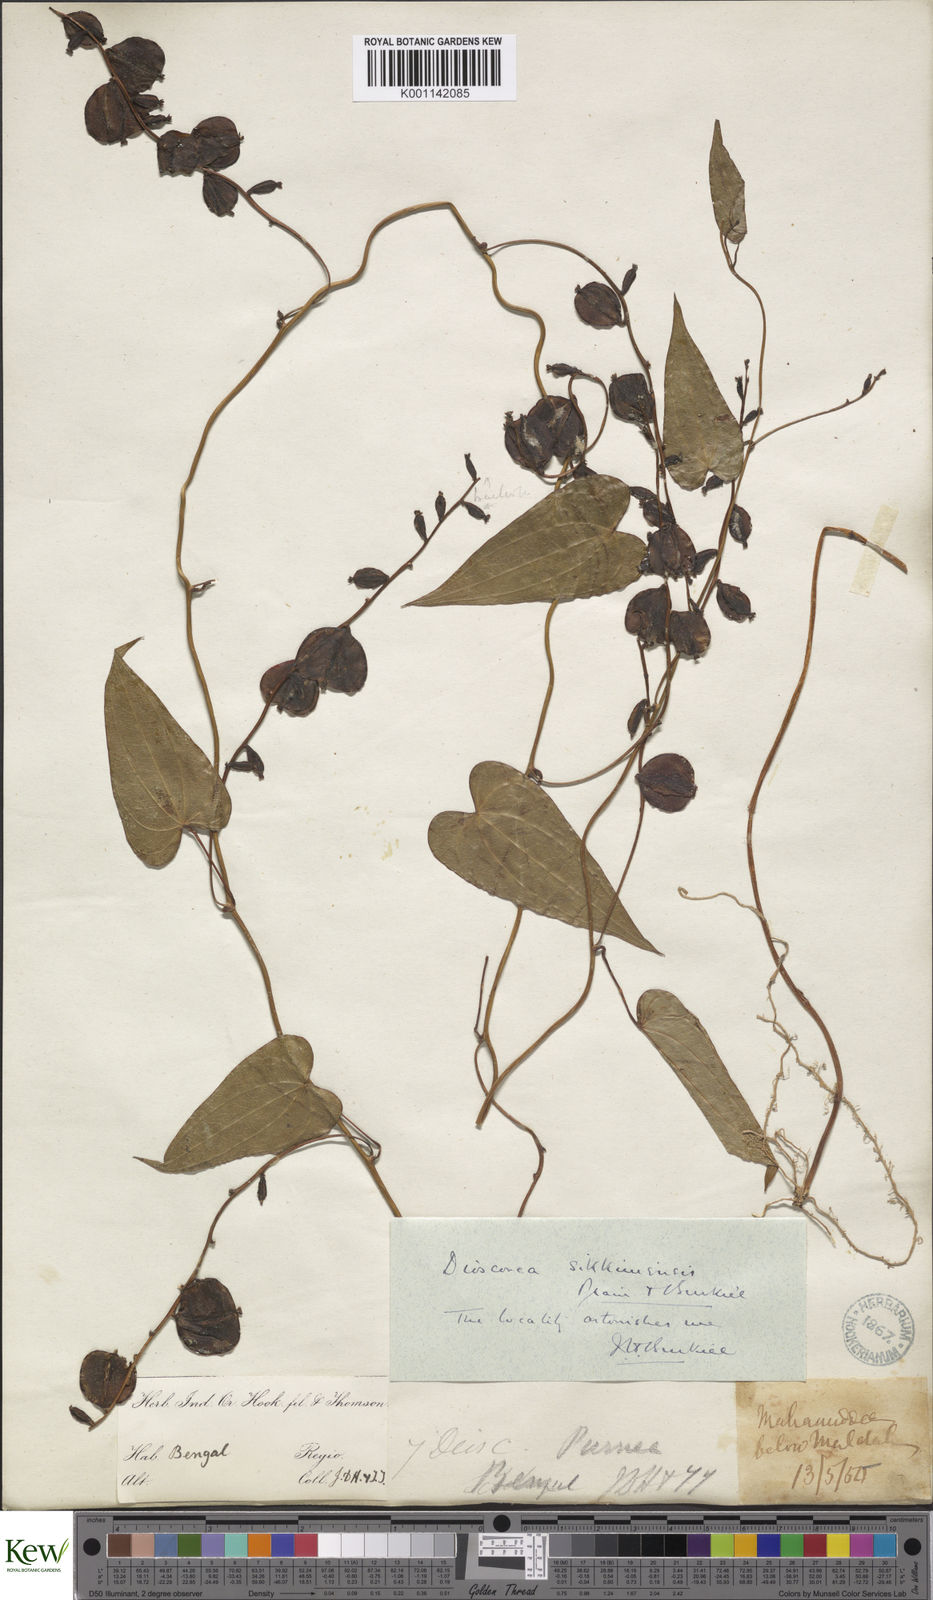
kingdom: Plantae
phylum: Tracheophyta
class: Liliopsida
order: Dioscoreales
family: Dioscoreaceae
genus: Dioscorea
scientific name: Dioscorea prazeri
